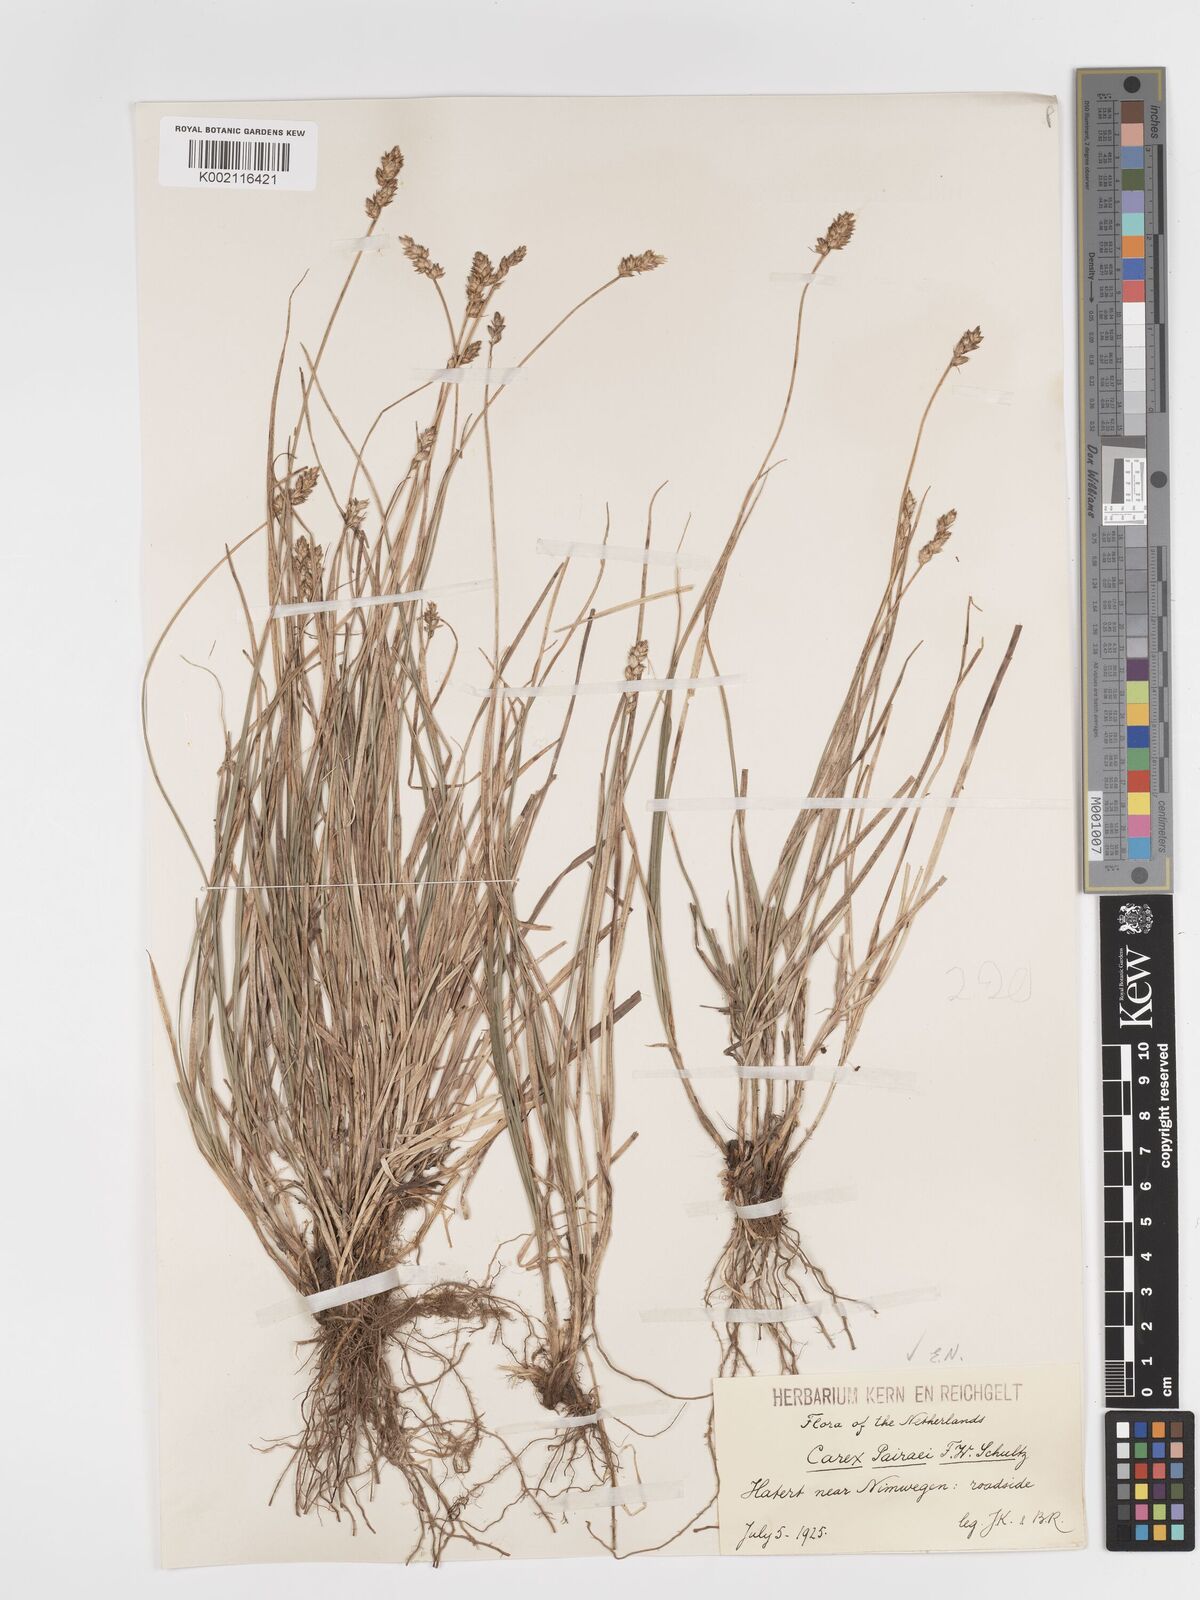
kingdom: Plantae
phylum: Tracheophyta
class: Liliopsida
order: Poales
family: Cyperaceae
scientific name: Cyperaceae
